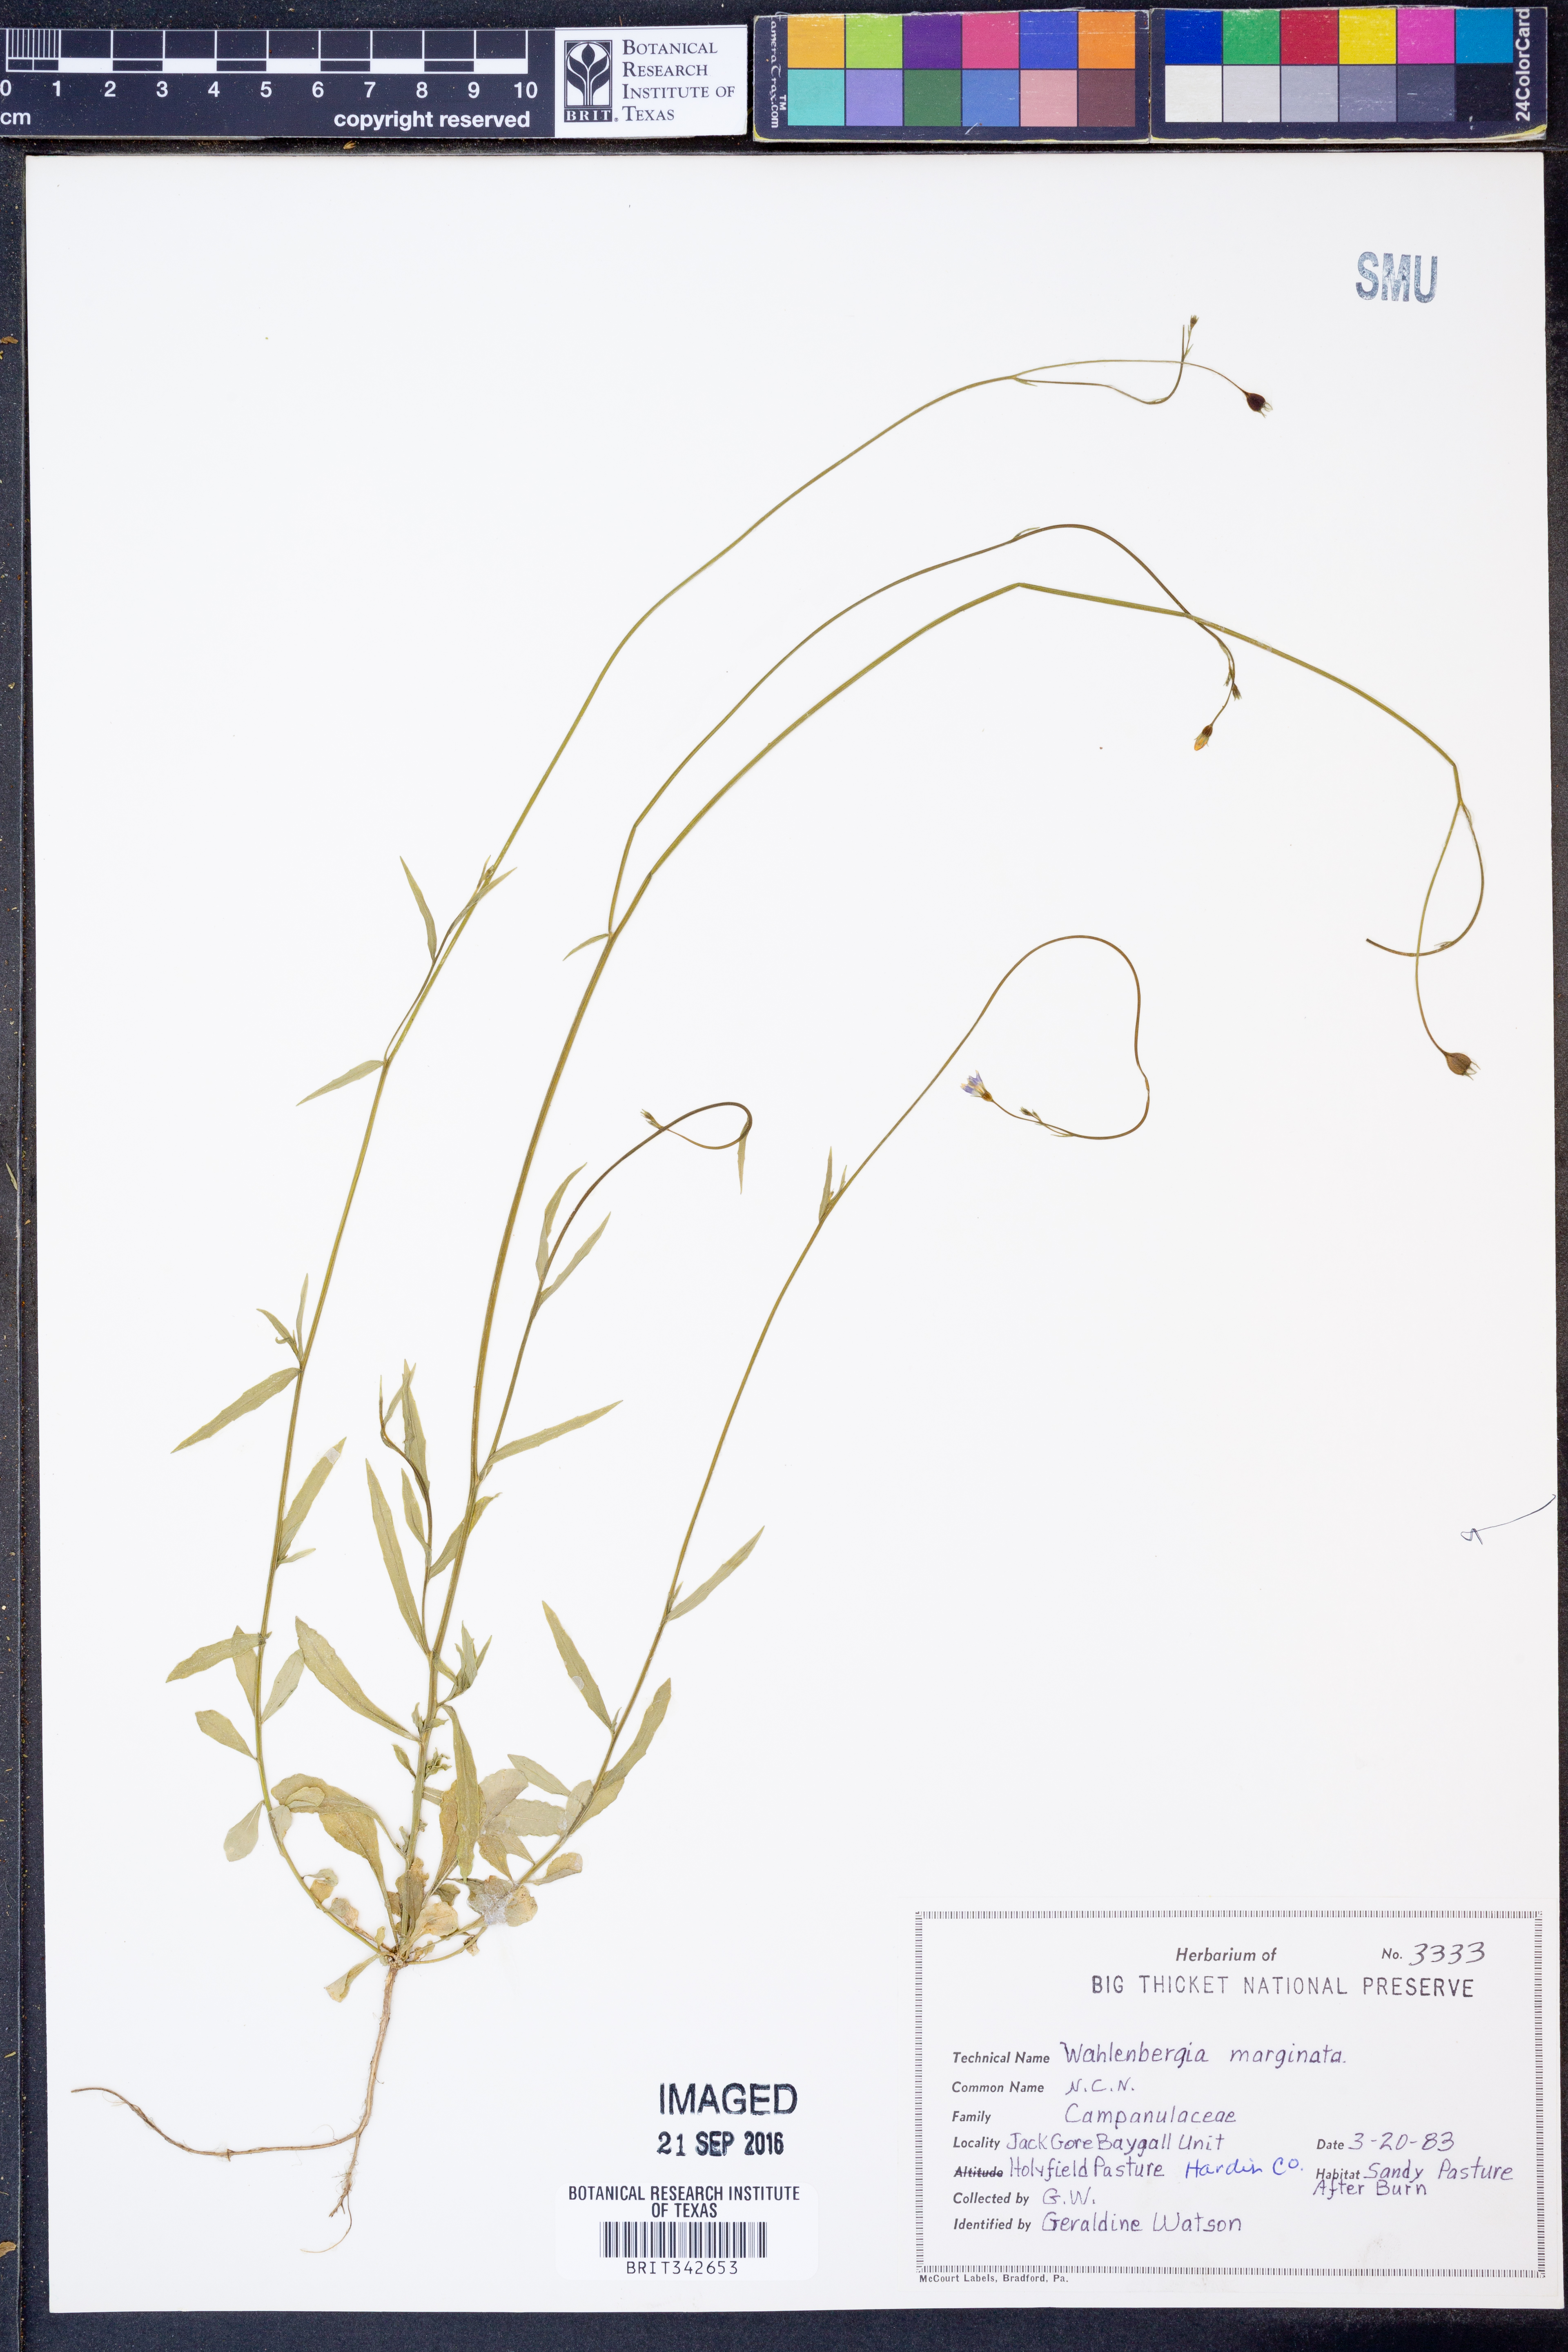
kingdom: Plantae
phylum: Tracheophyta
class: Magnoliopsida
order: Asterales
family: Campanulaceae
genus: Wahlenbergia
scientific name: Wahlenbergia marginata
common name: Southern rockbell
